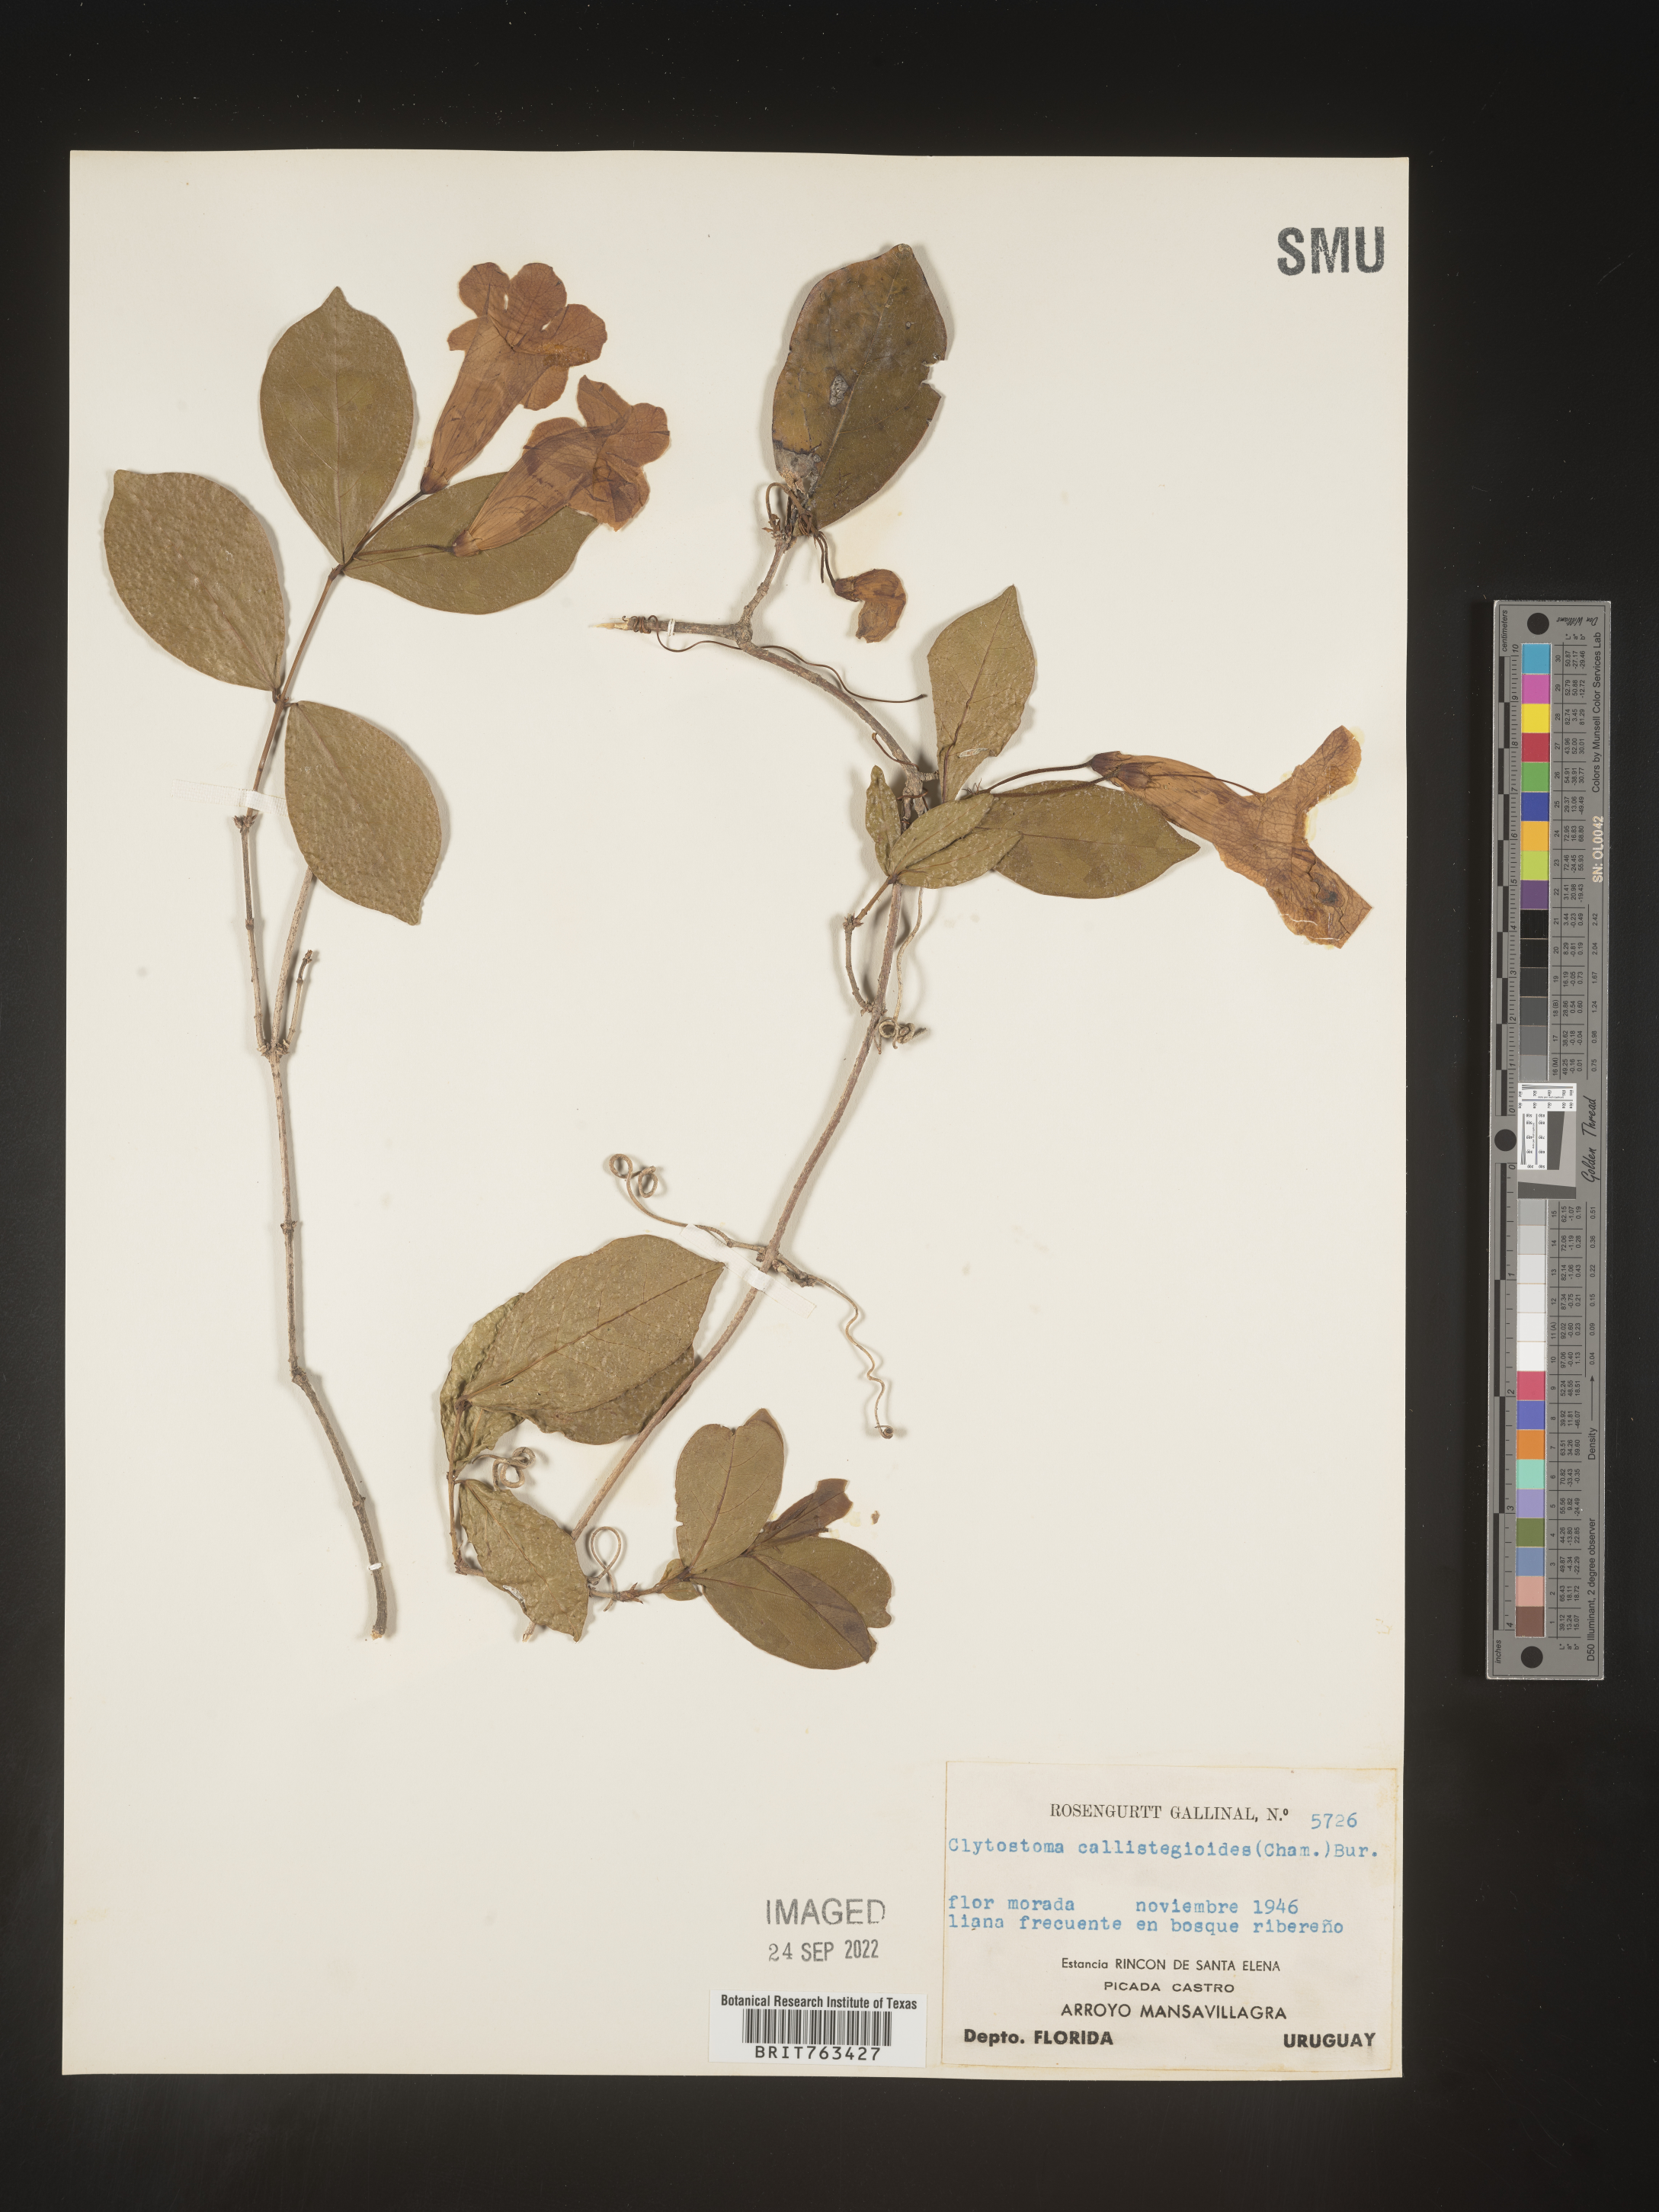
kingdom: Plantae
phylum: Tracheophyta
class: Magnoliopsida
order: Lamiales
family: Bignoniaceae
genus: Bignonia
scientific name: Bignonia
